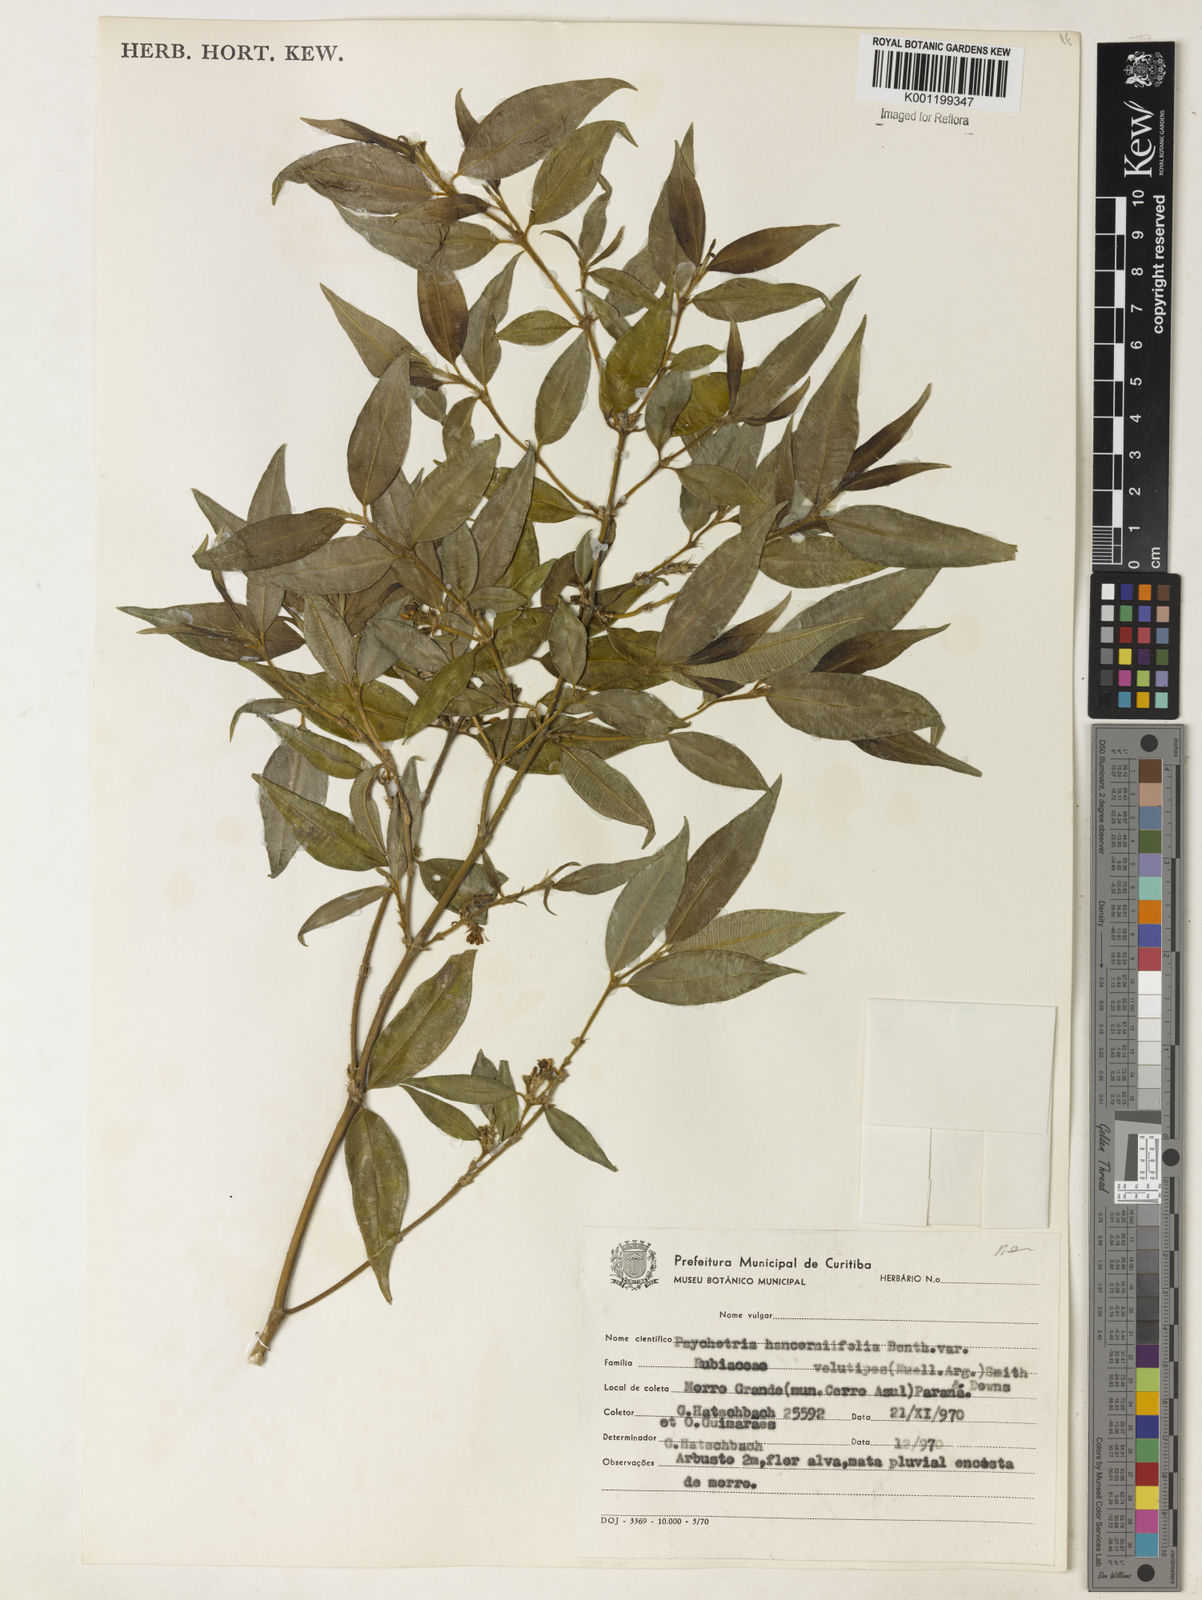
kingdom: Plantae
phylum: Tracheophyta
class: Magnoliopsida
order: Gentianales
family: Rubiaceae
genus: Rudgea
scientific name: Rudgea sessilis
